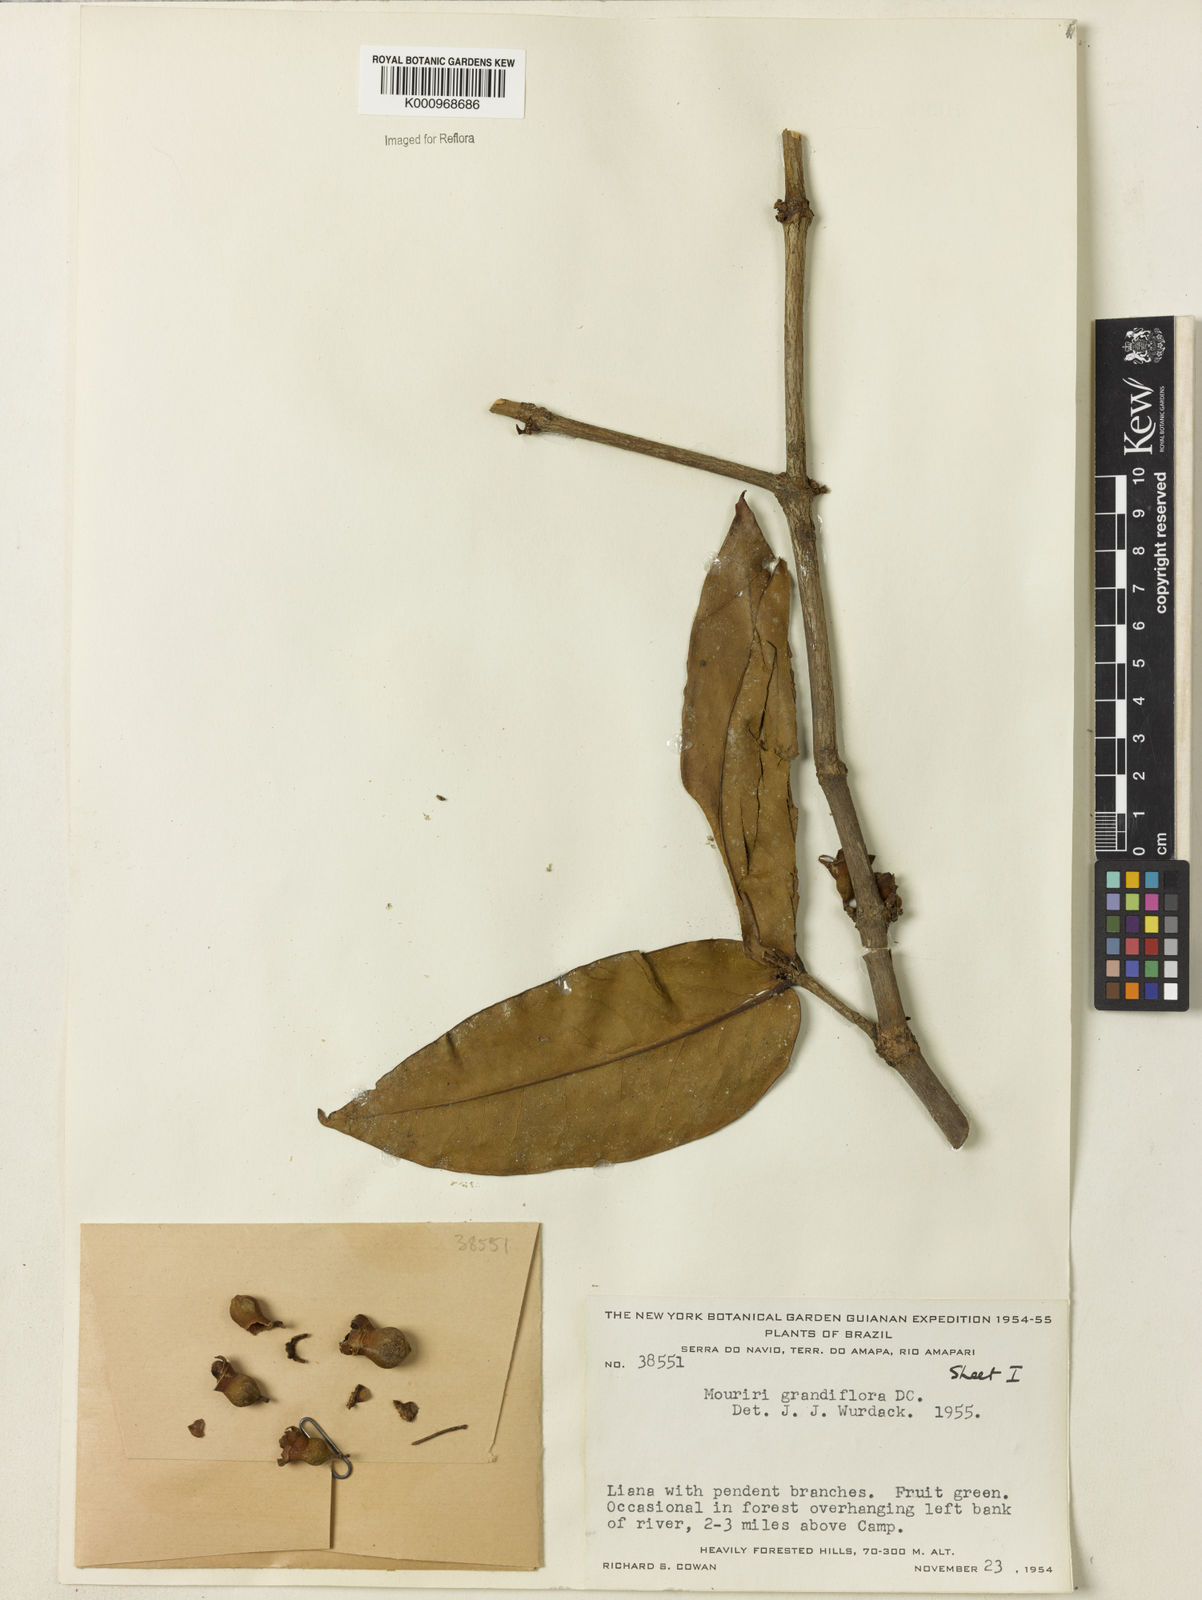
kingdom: Plantae
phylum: Tracheophyta
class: Magnoliopsida
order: Myrtales
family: Melastomataceae
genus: Mouriri
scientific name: Mouriri grandiflora
